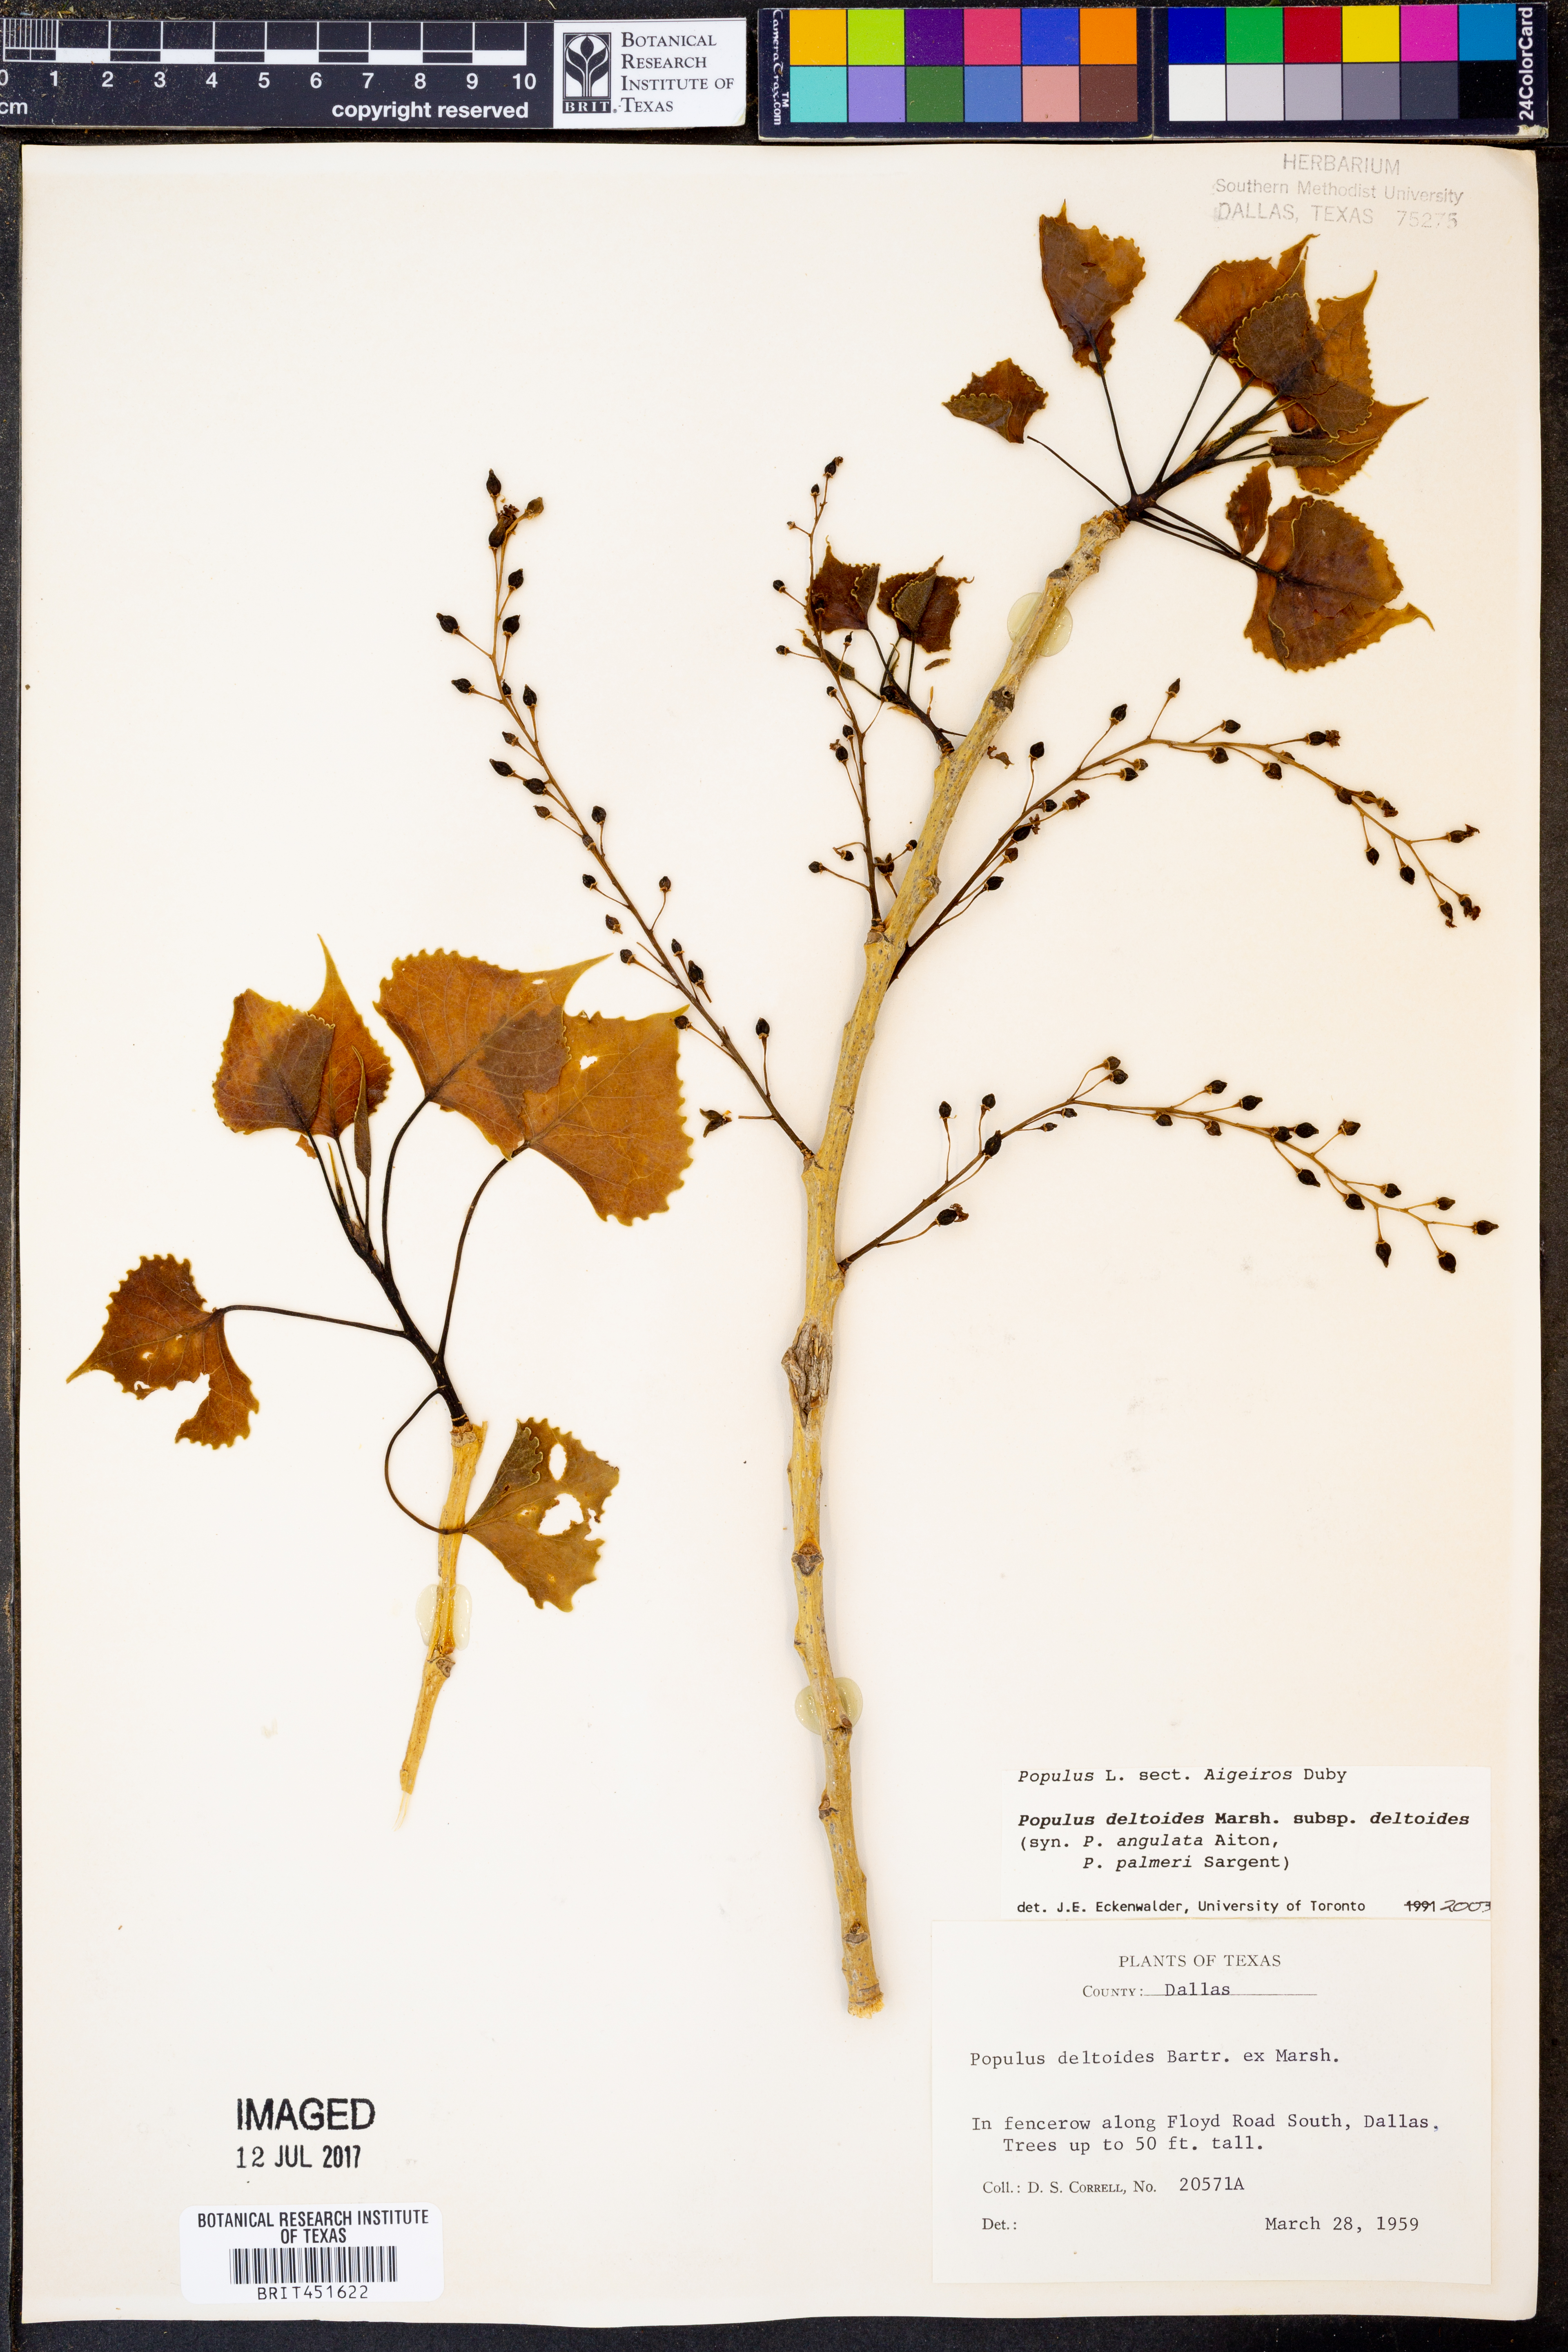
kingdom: Plantae
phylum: Tracheophyta
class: Magnoliopsida
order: Malpighiales
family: Salicaceae
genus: Populus
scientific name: Populus deltoides
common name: Eastern cottonwood
